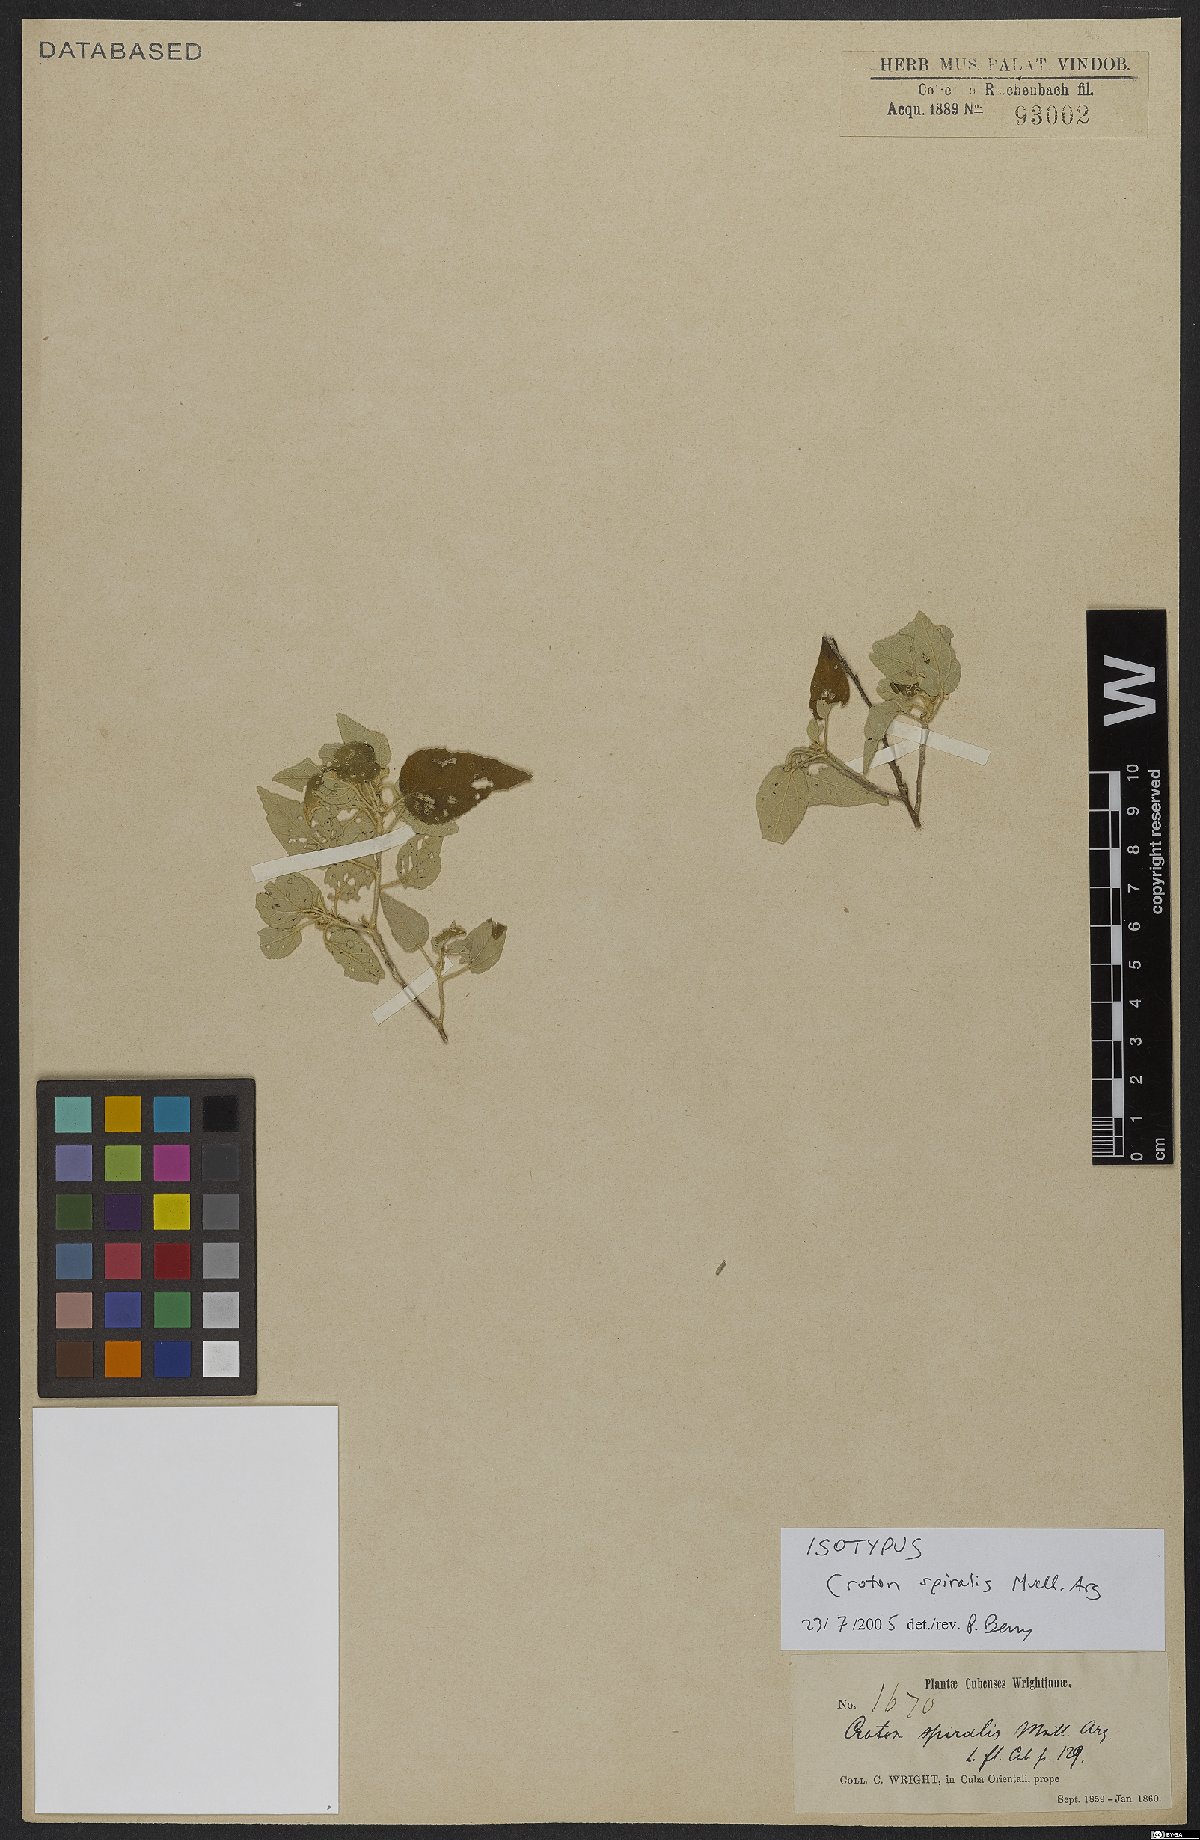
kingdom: Plantae
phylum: Tracheophyta
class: Magnoliopsida
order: Malpighiales
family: Euphorbiaceae
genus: Croton
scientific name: Croton spiralis
